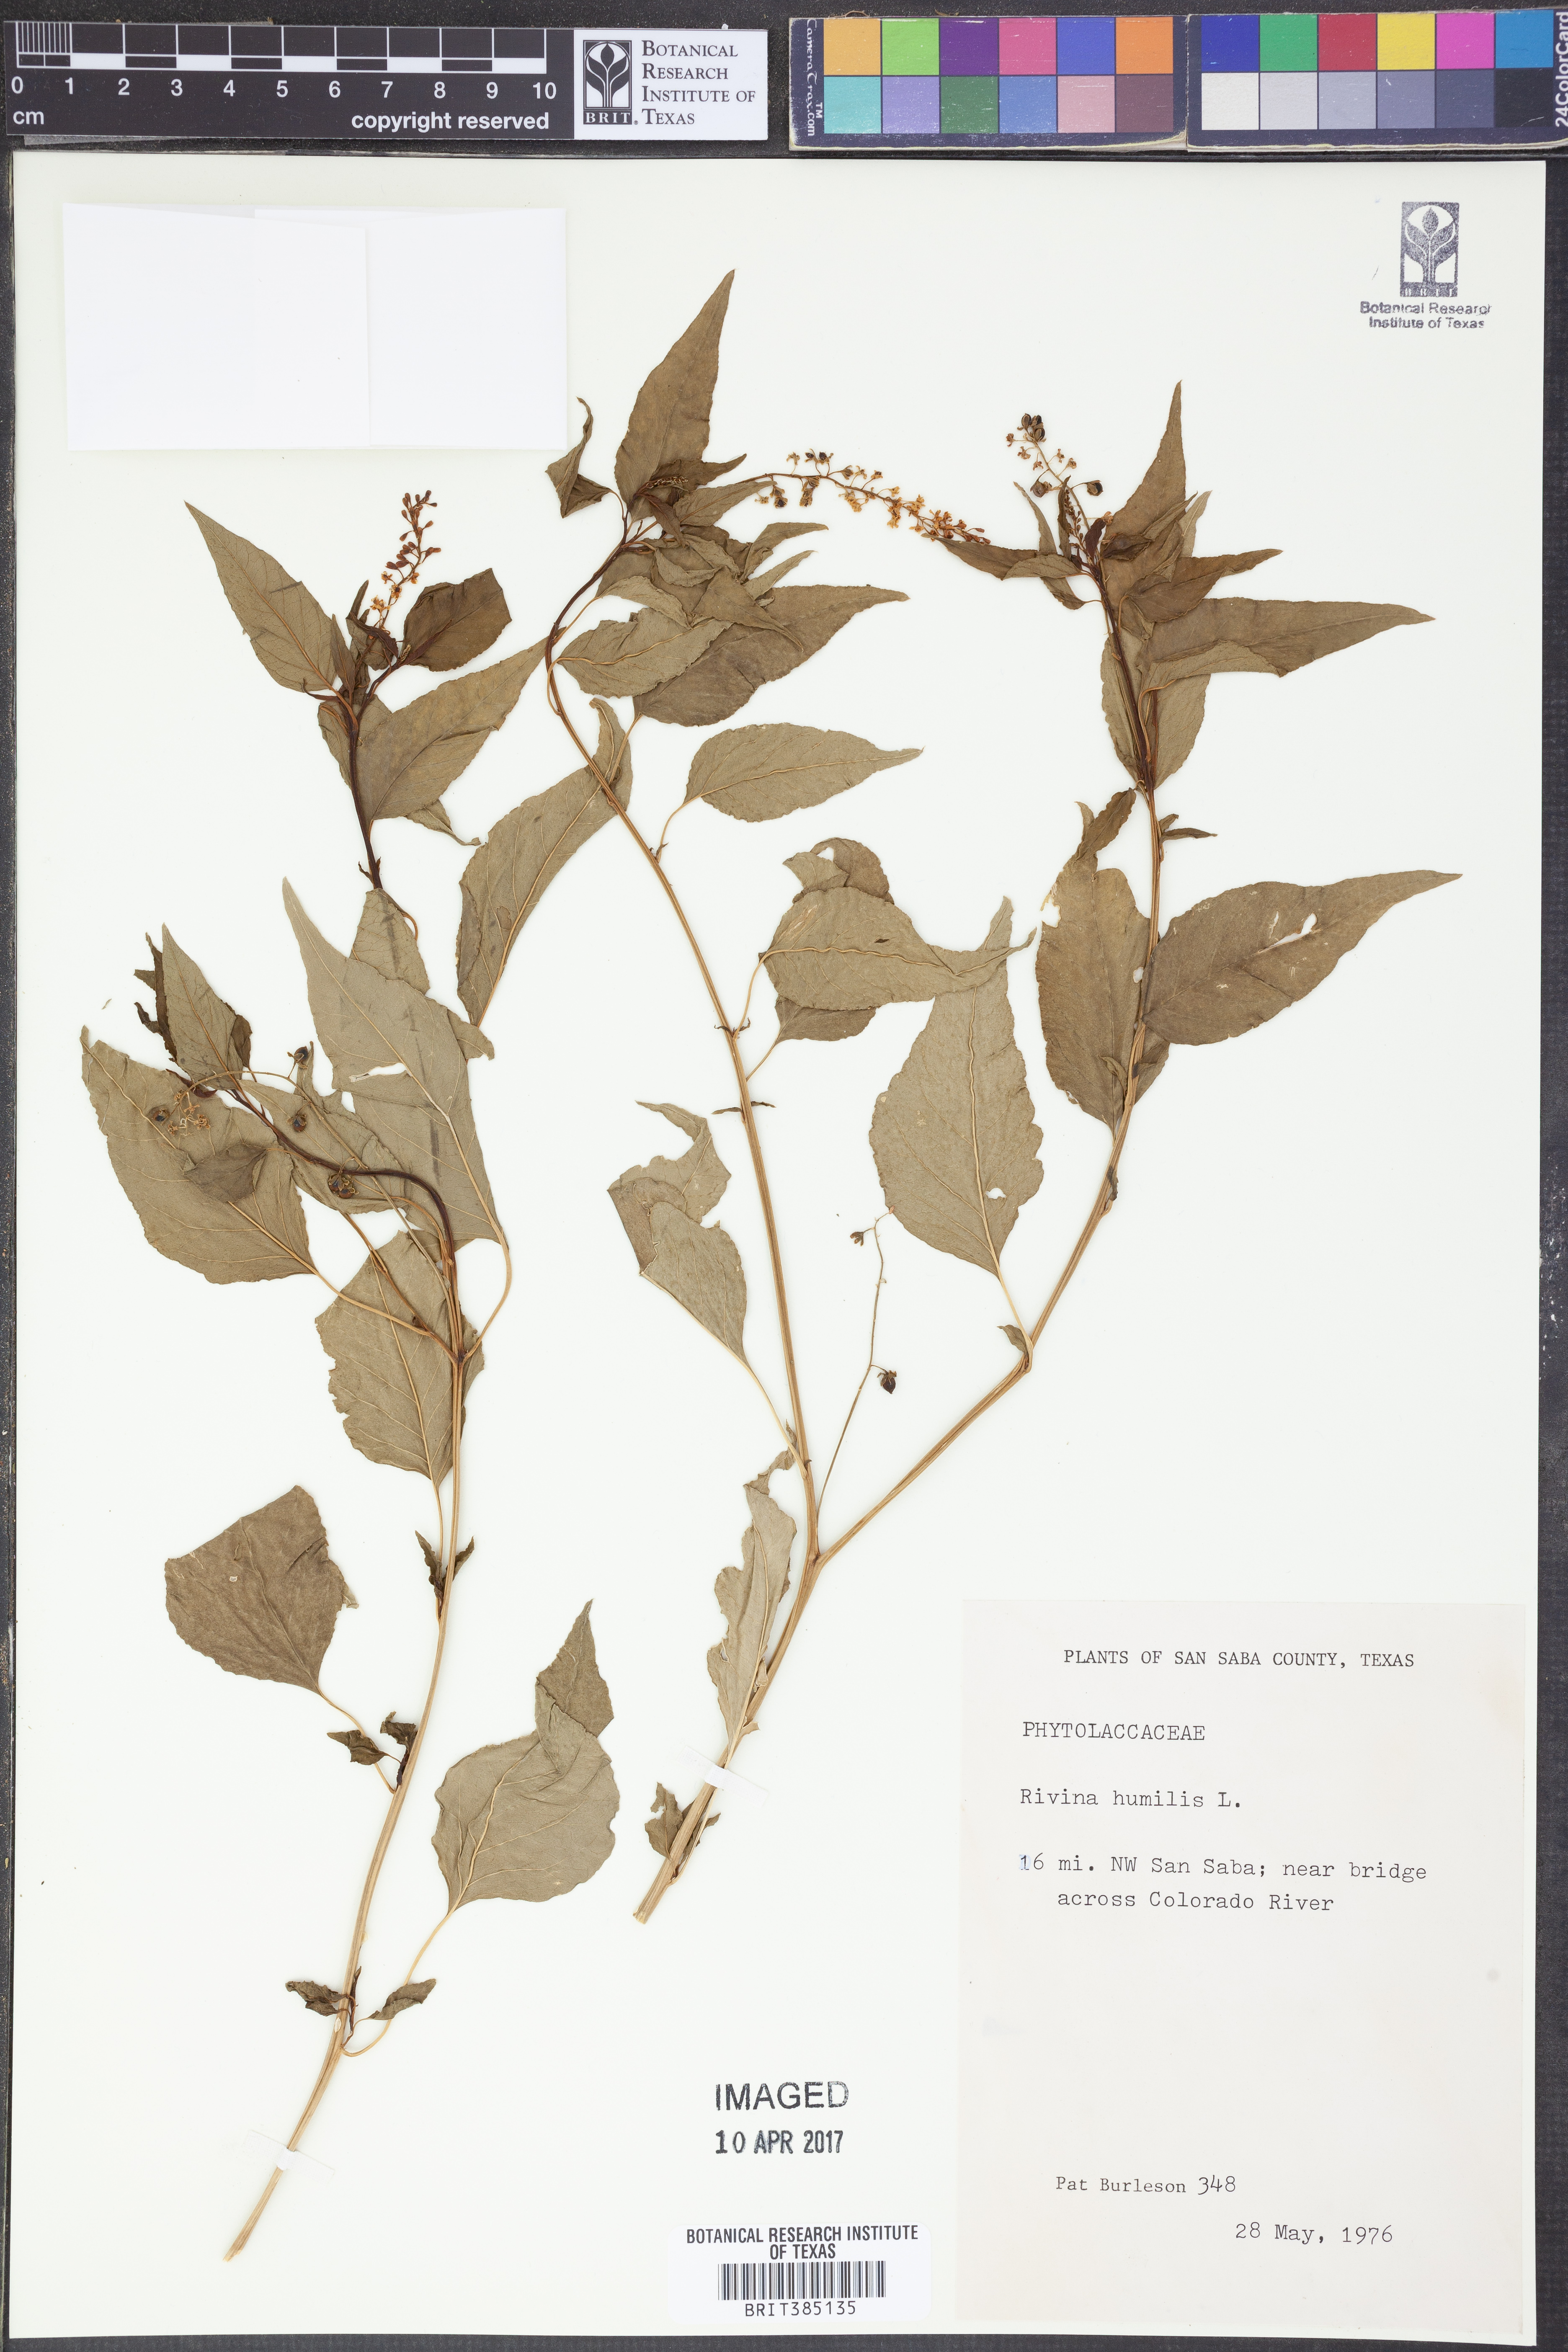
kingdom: Plantae
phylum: Tracheophyta
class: Magnoliopsida
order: Caryophyllales
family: Phytolaccaceae
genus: Rivina
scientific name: Rivina humilis
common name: Rougeplant
